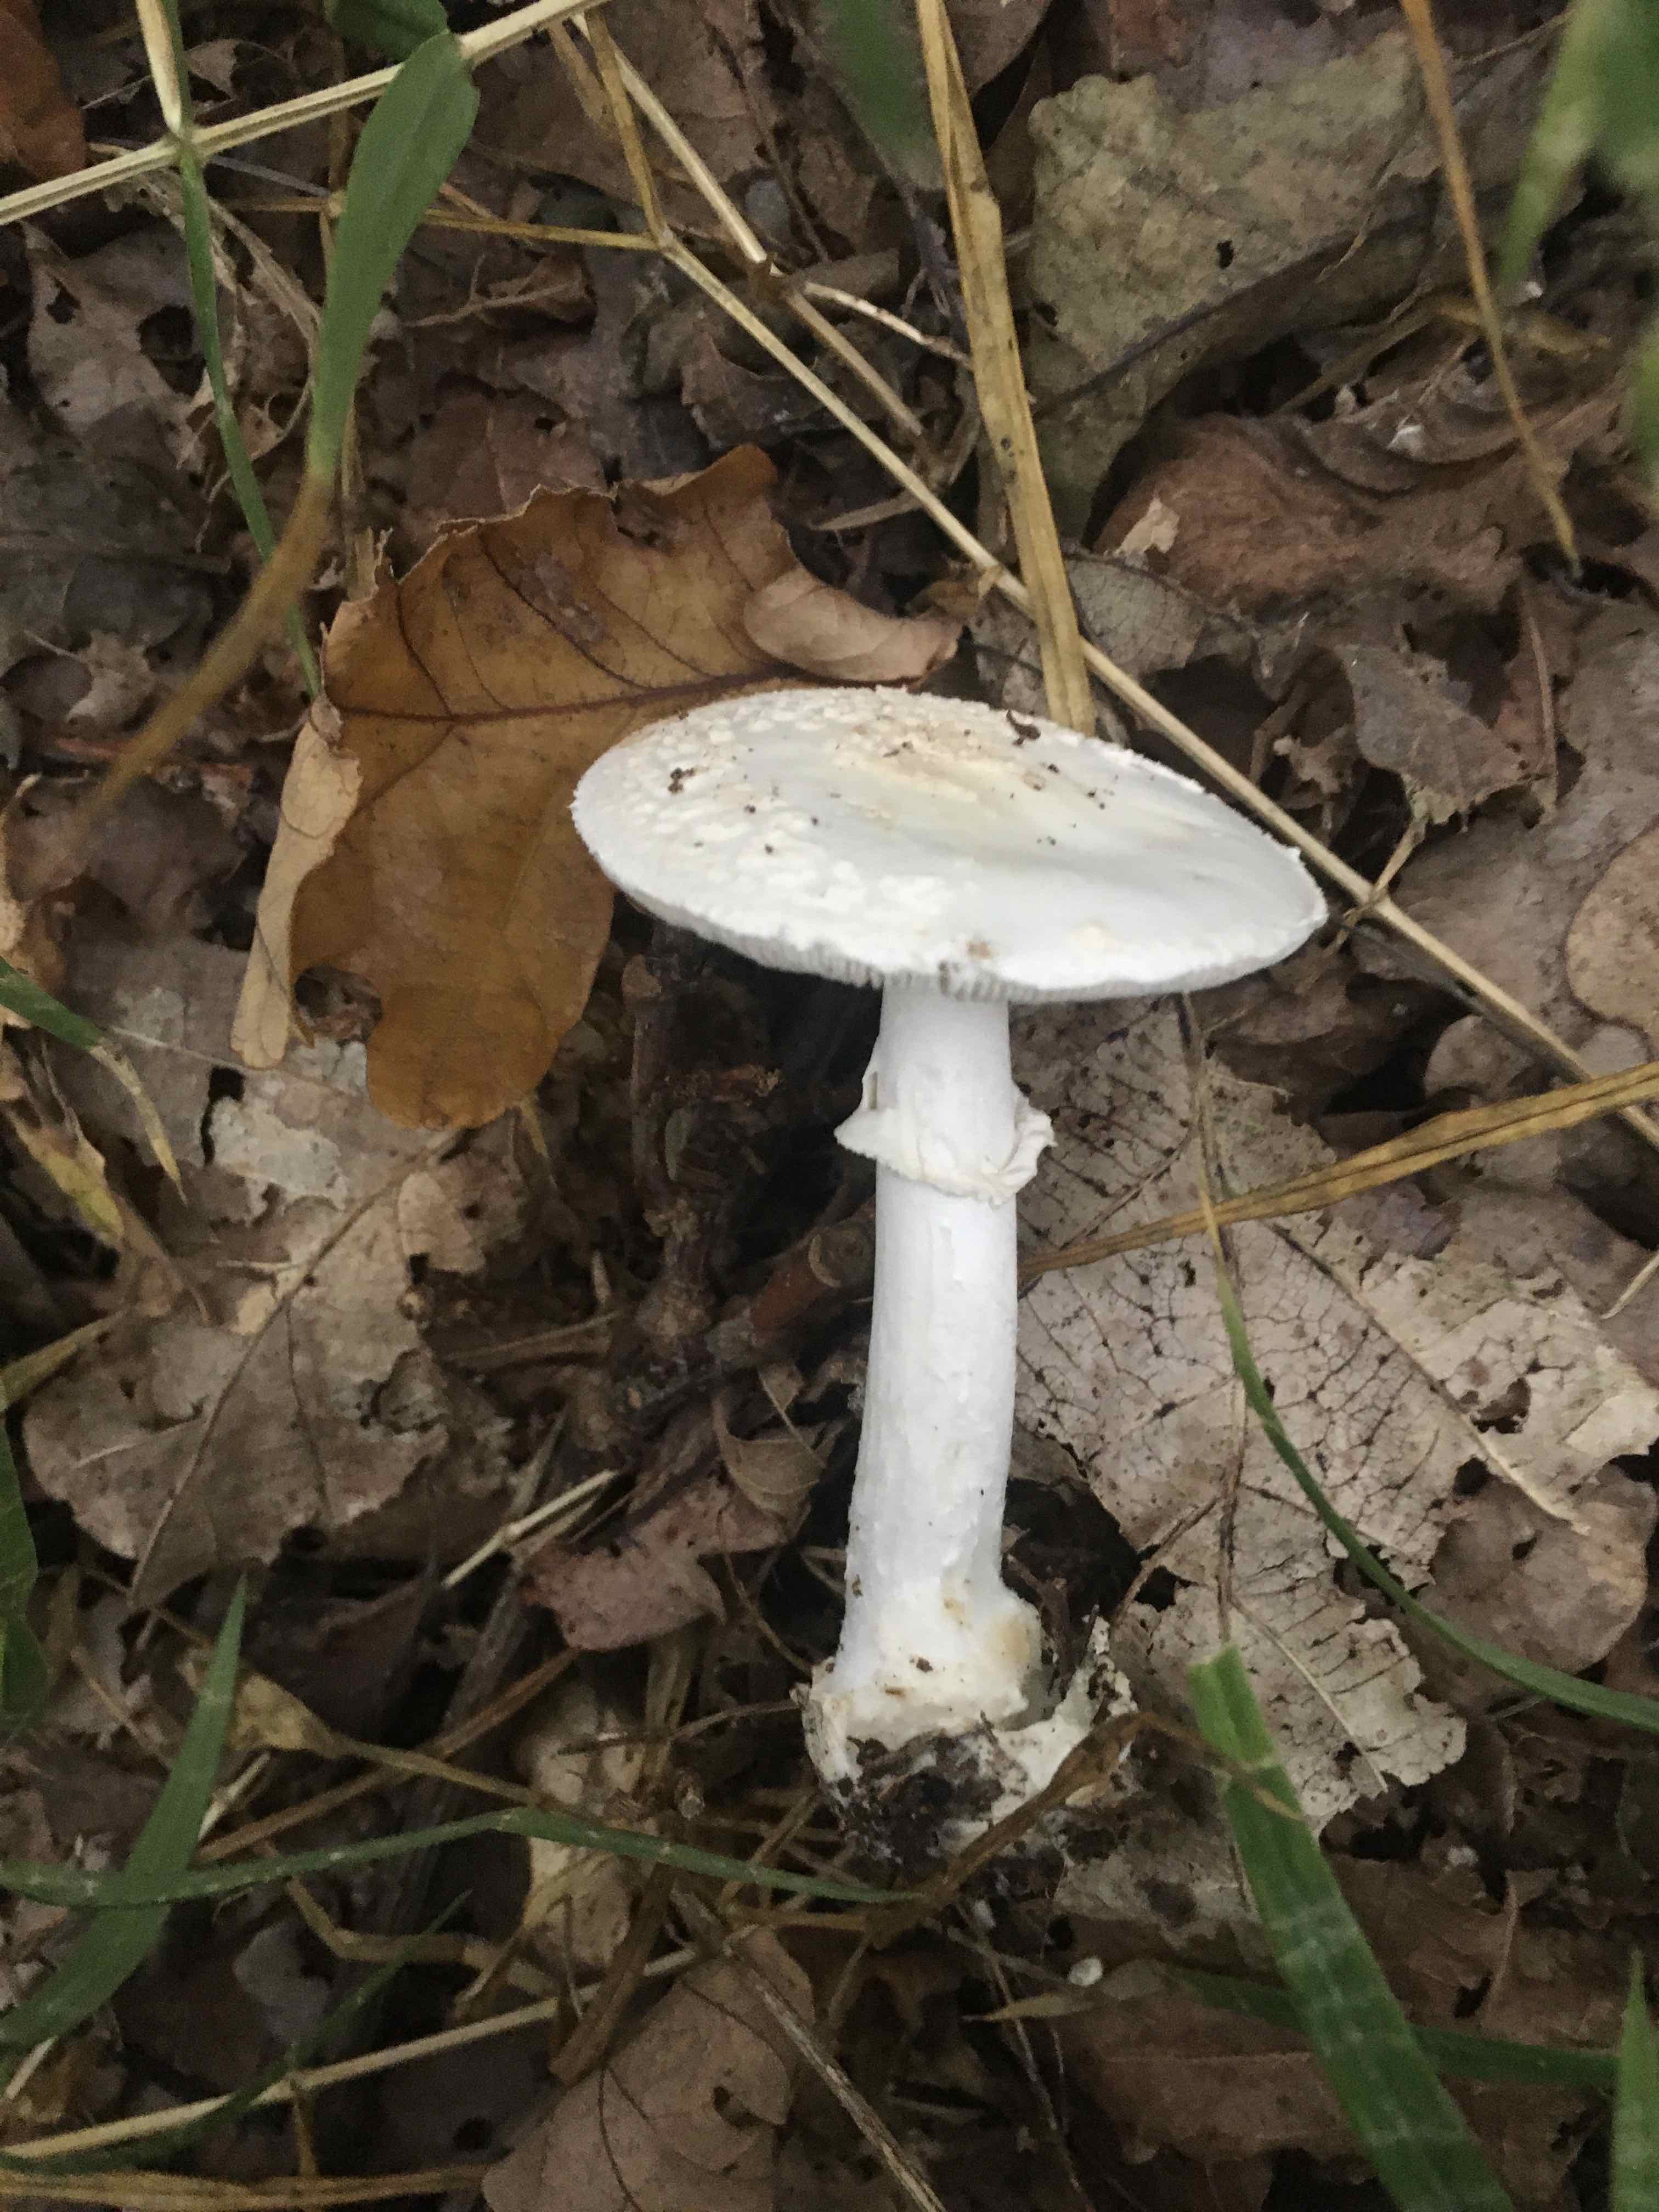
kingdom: Fungi
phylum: Basidiomycota
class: Agaricomycetes
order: Agaricales
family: Amanitaceae
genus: Amanita
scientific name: Amanita citrina
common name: False death-cap
